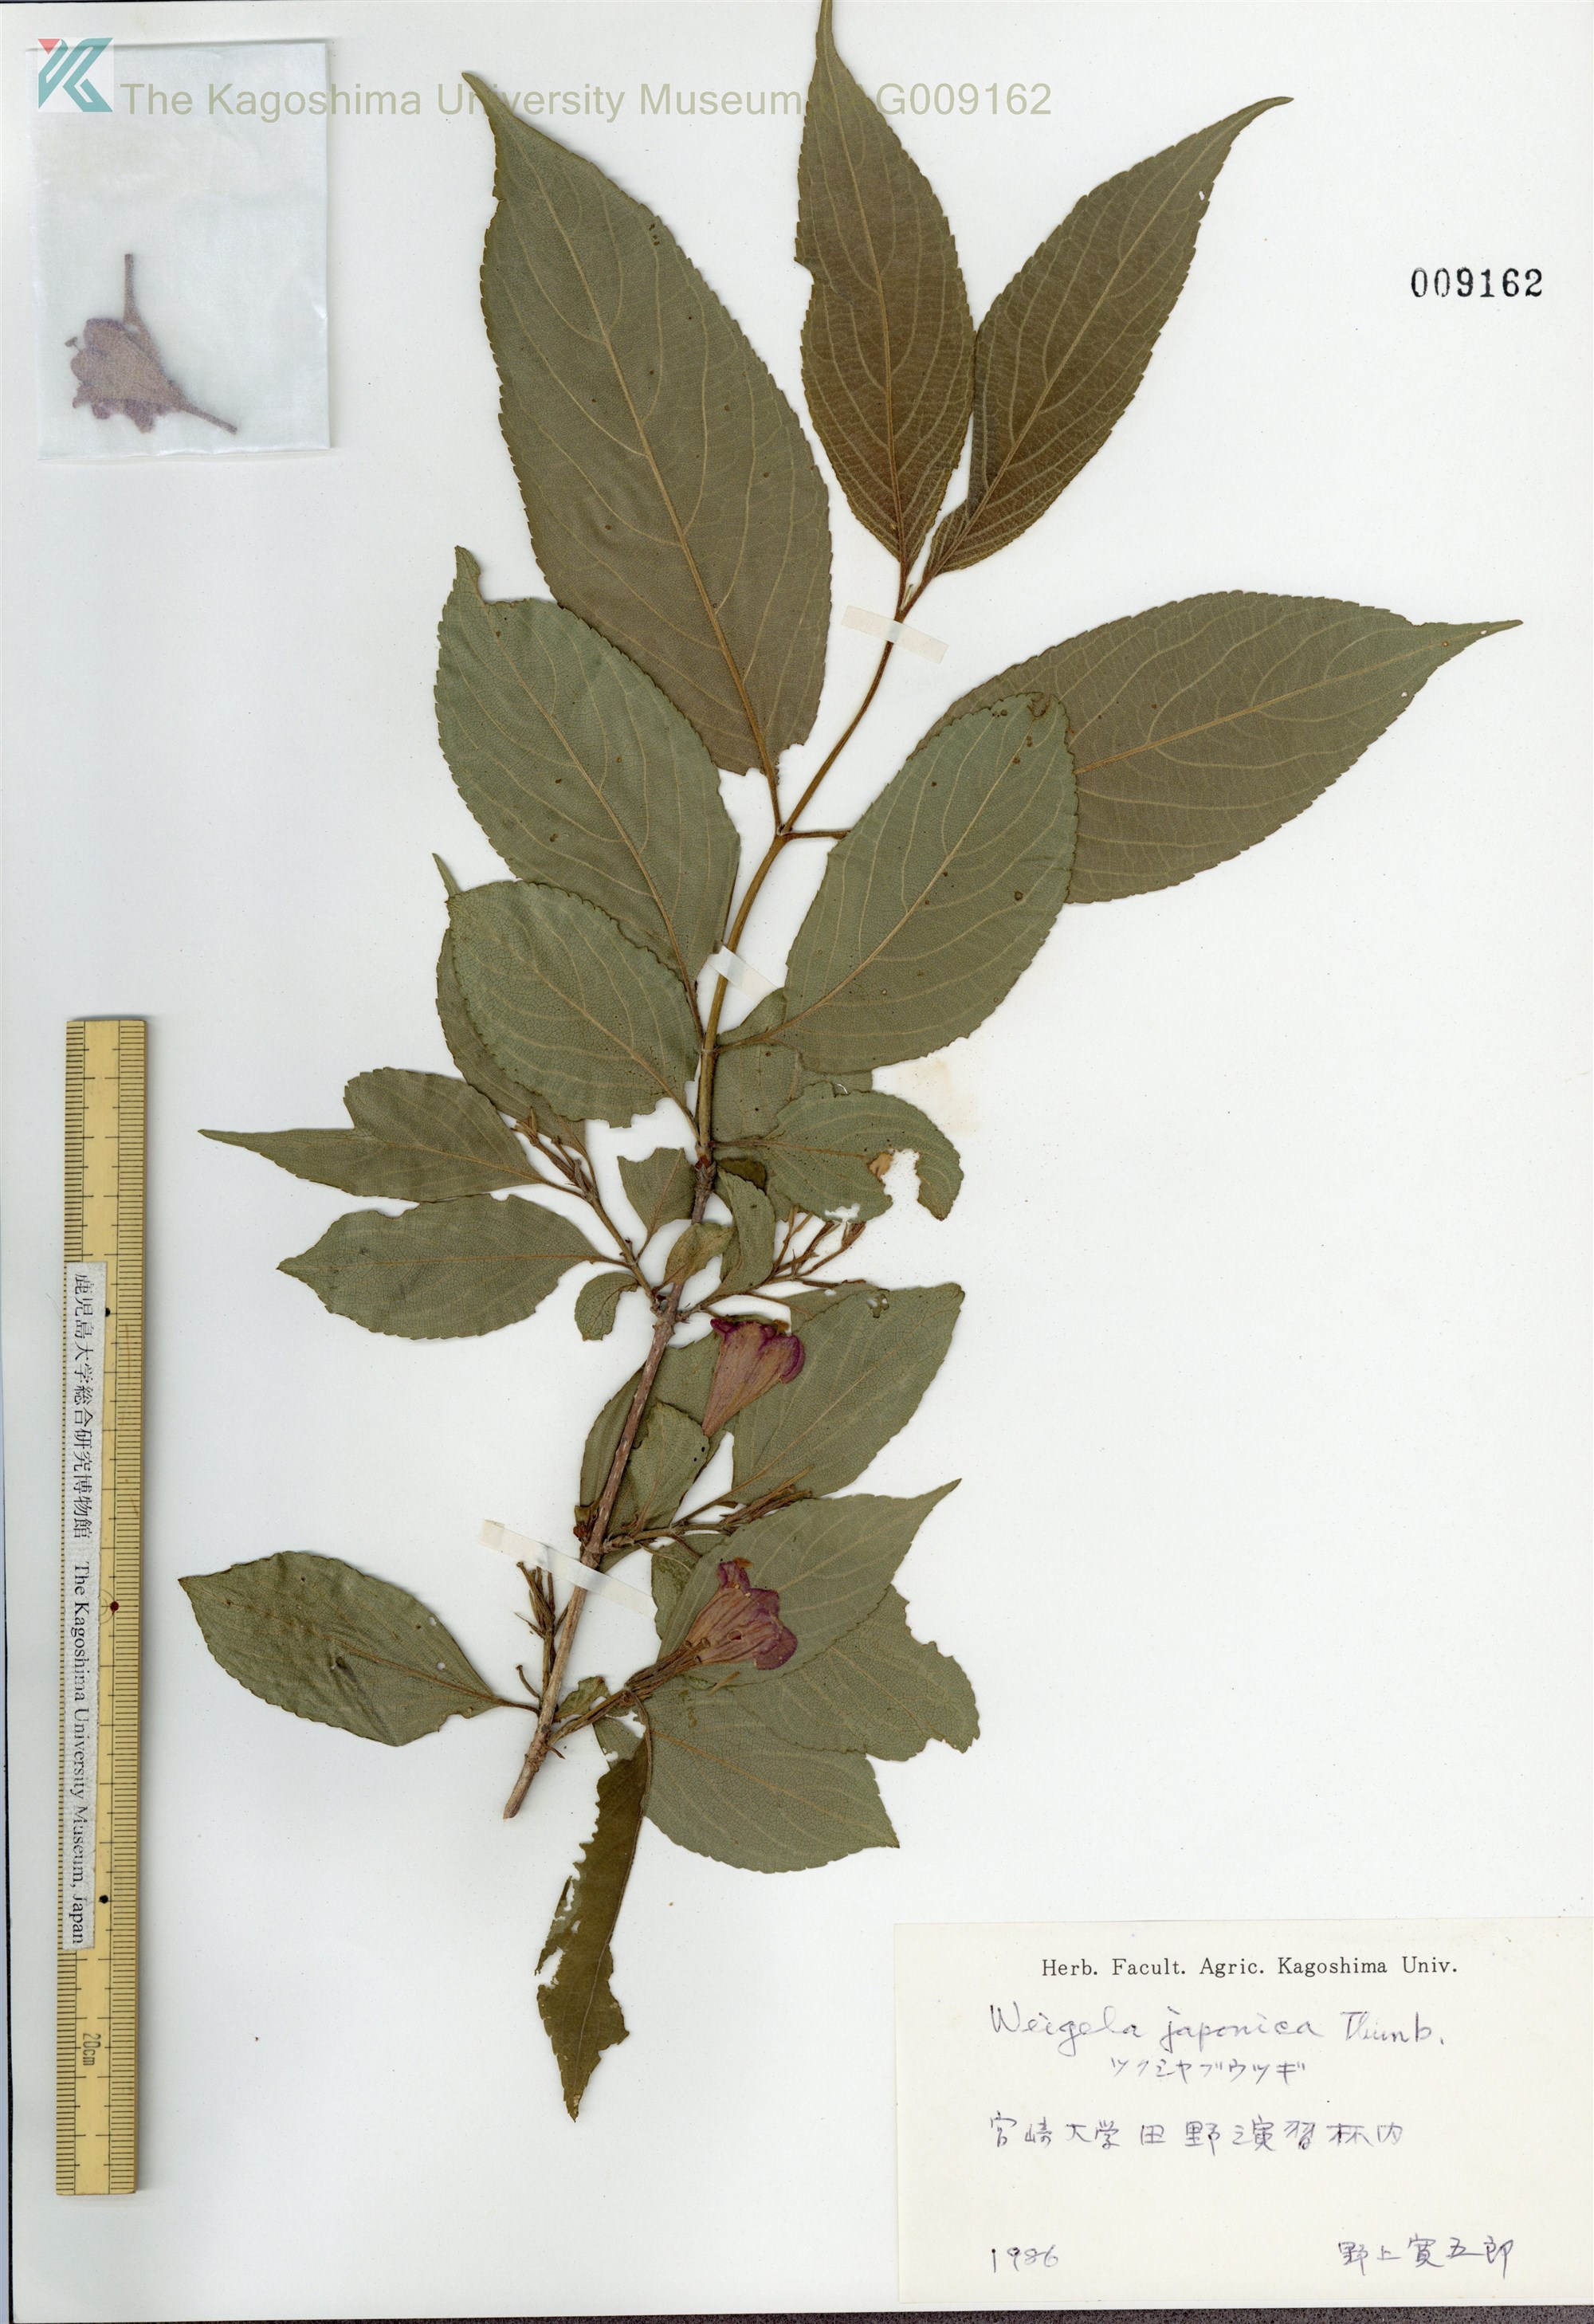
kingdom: Plantae
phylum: Tracheophyta
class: Magnoliopsida
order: Dipsacales
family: Caprifoliaceae
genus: Weigela
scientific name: Weigela japonica
